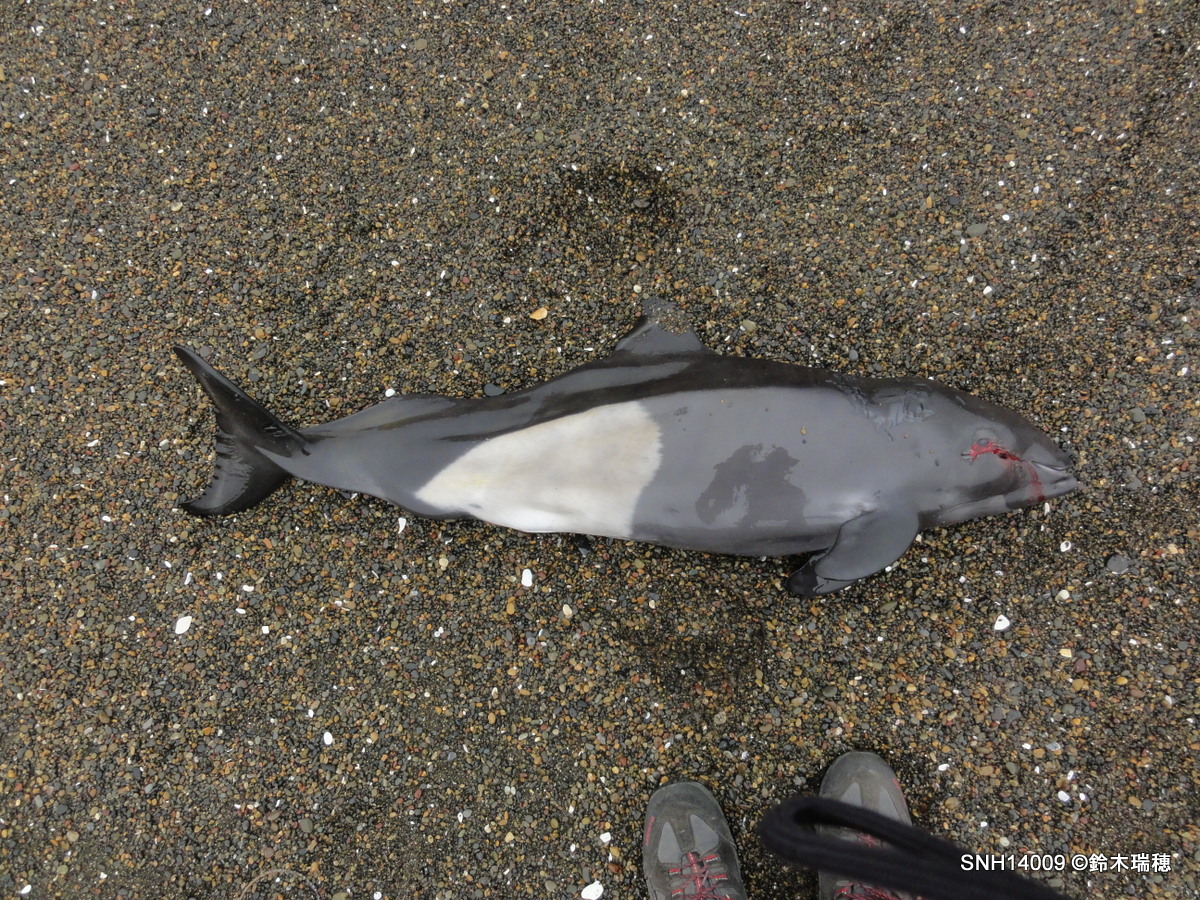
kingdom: Animalia
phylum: Chordata
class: Mammalia
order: Cetacea
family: Phocoenidae
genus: Phocoenoides
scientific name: Phocoenoides dalli
